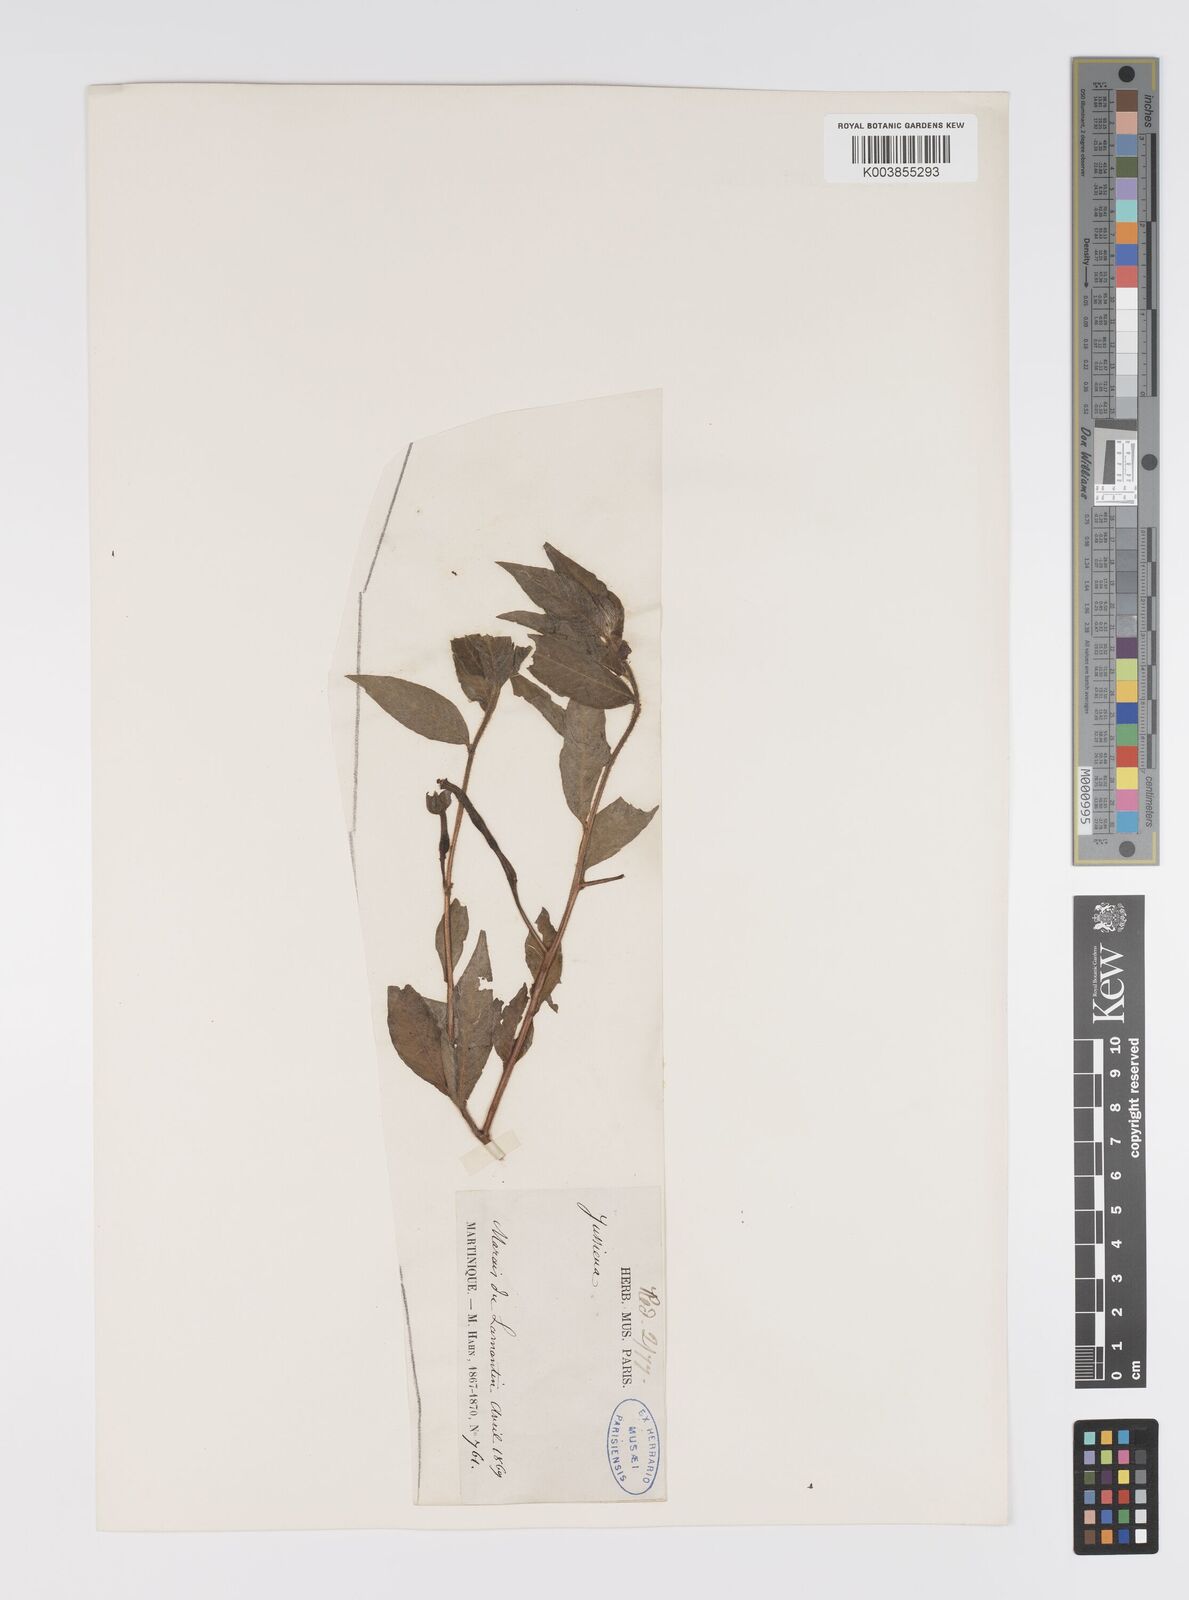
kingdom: Plantae
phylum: Tracheophyta
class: Magnoliopsida
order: Myrtales
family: Onagraceae
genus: Ludwigia
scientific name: Ludwigia octovalvis
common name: Water-primrose
